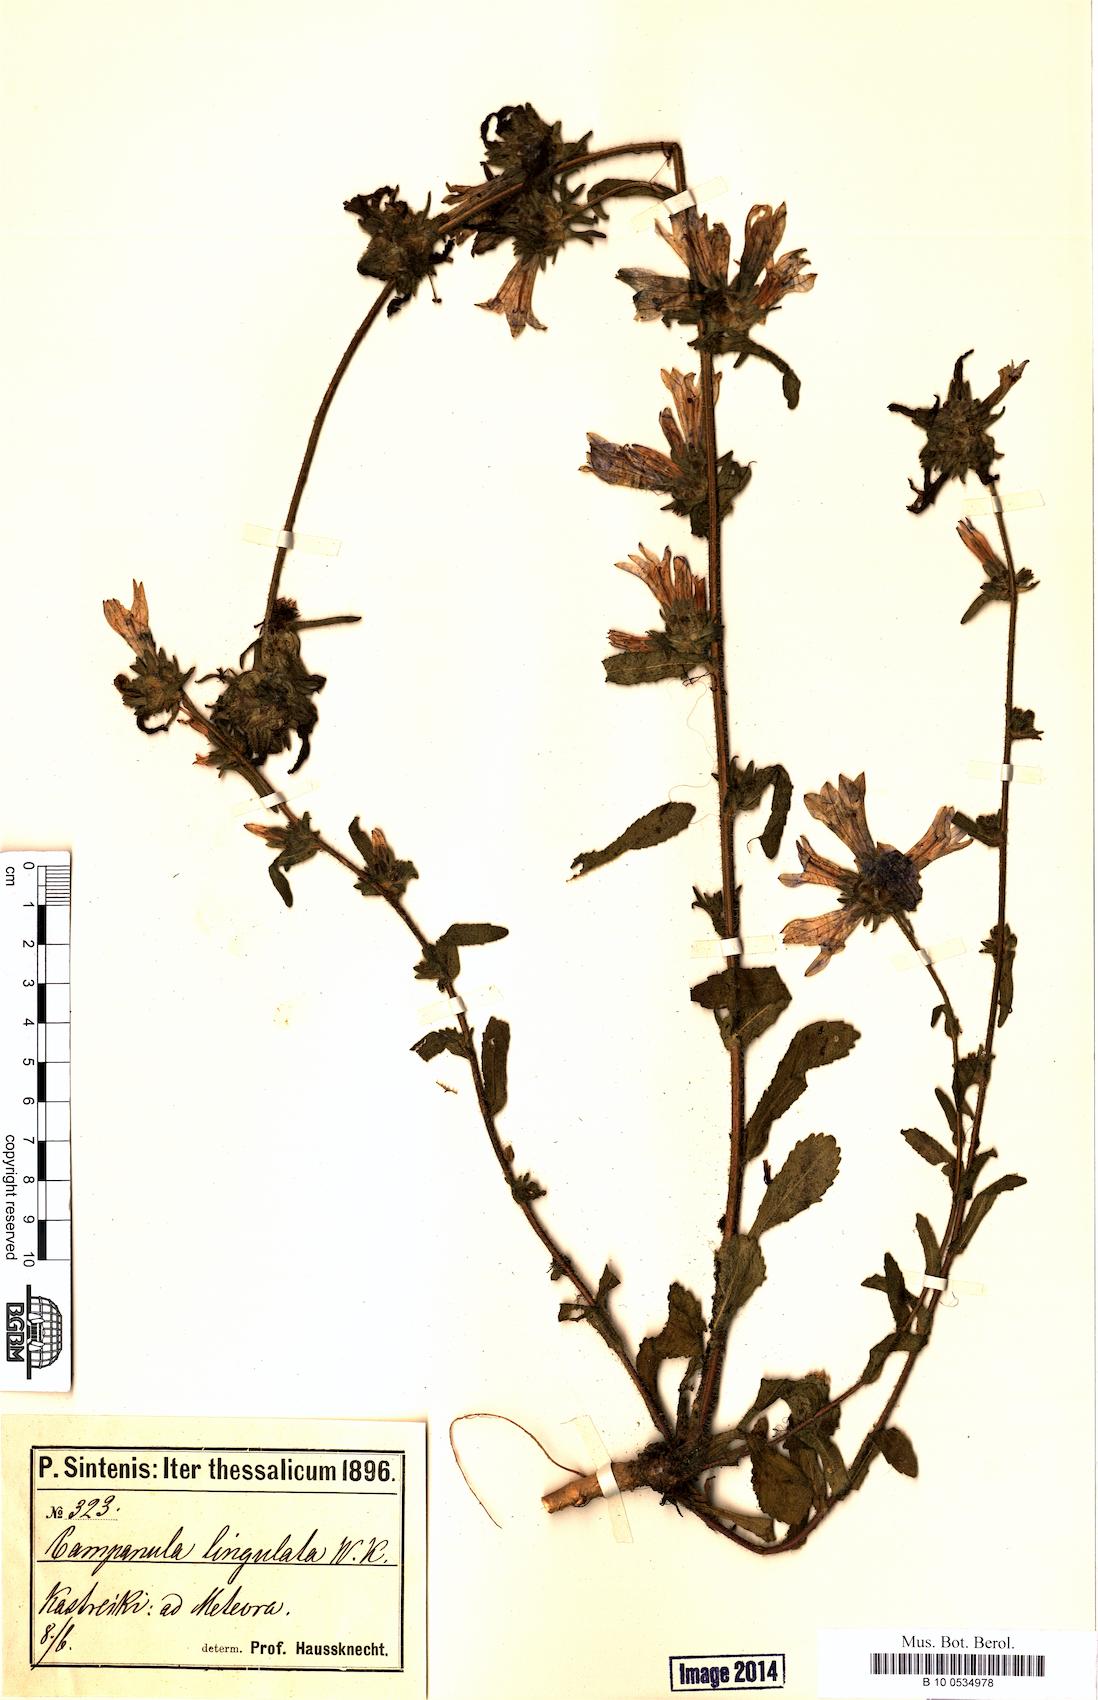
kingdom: Plantae
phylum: Tracheophyta
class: Magnoliopsida
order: Asterales
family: Campanulaceae
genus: Campanula
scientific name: Campanula lingulata
